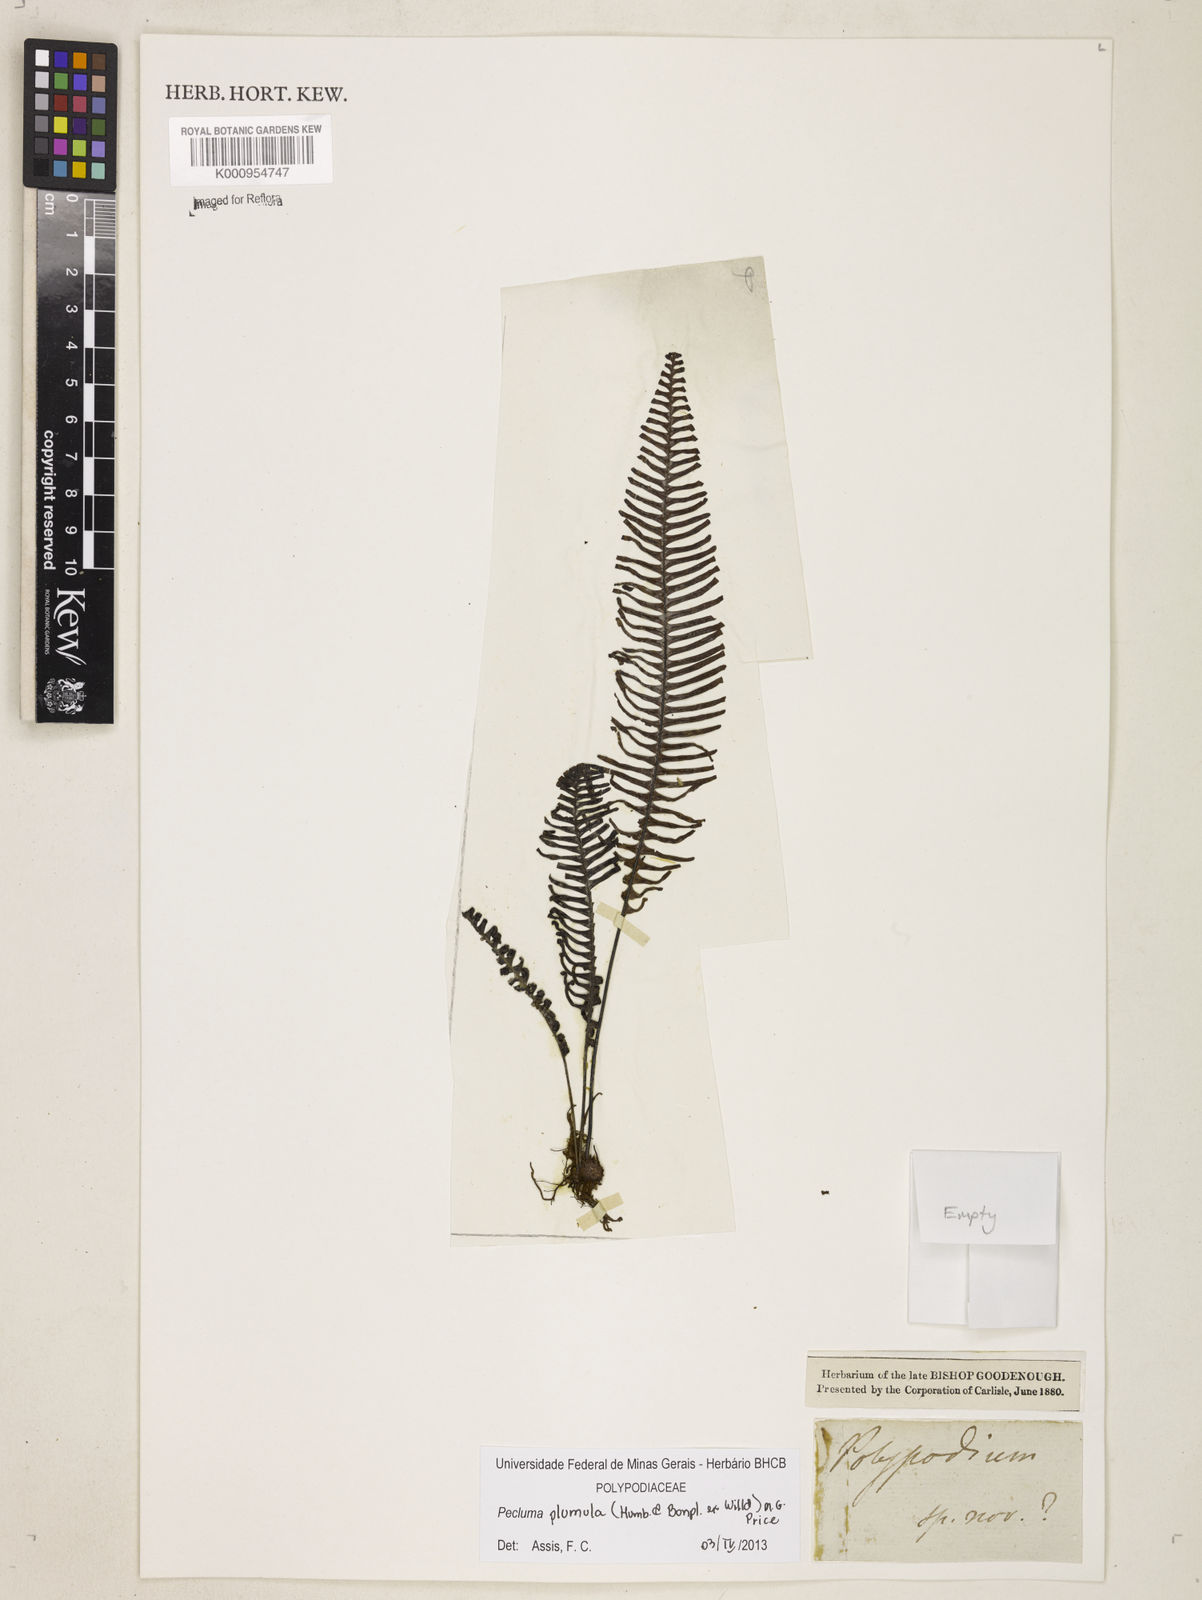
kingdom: Plantae
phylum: Tracheophyta
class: Polypodiopsida
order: Polypodiales
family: Polypodiaceae
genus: Pecluma
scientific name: Pecluma plumula
